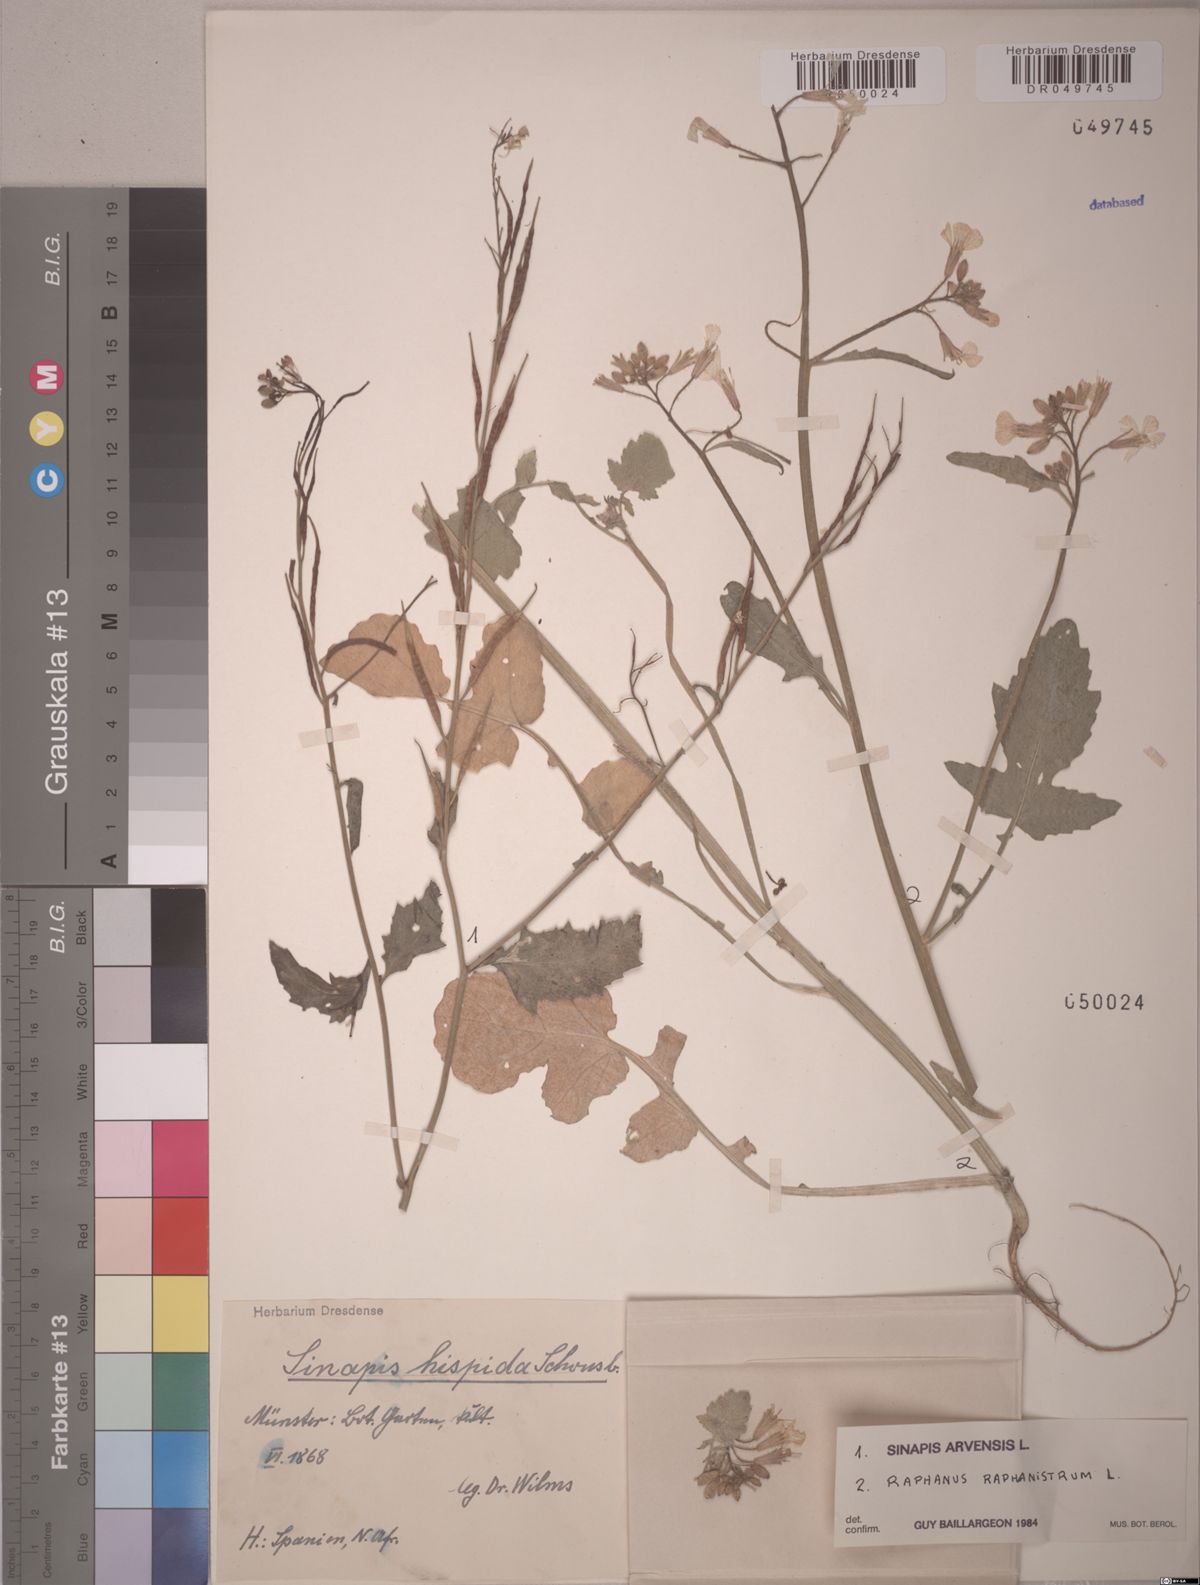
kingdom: Plantae
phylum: Tracheophyta
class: Magnoliopsida
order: Brassicales
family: Brassicaceae
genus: Sinapis
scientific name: Sinapis arvensis
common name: Charlock
